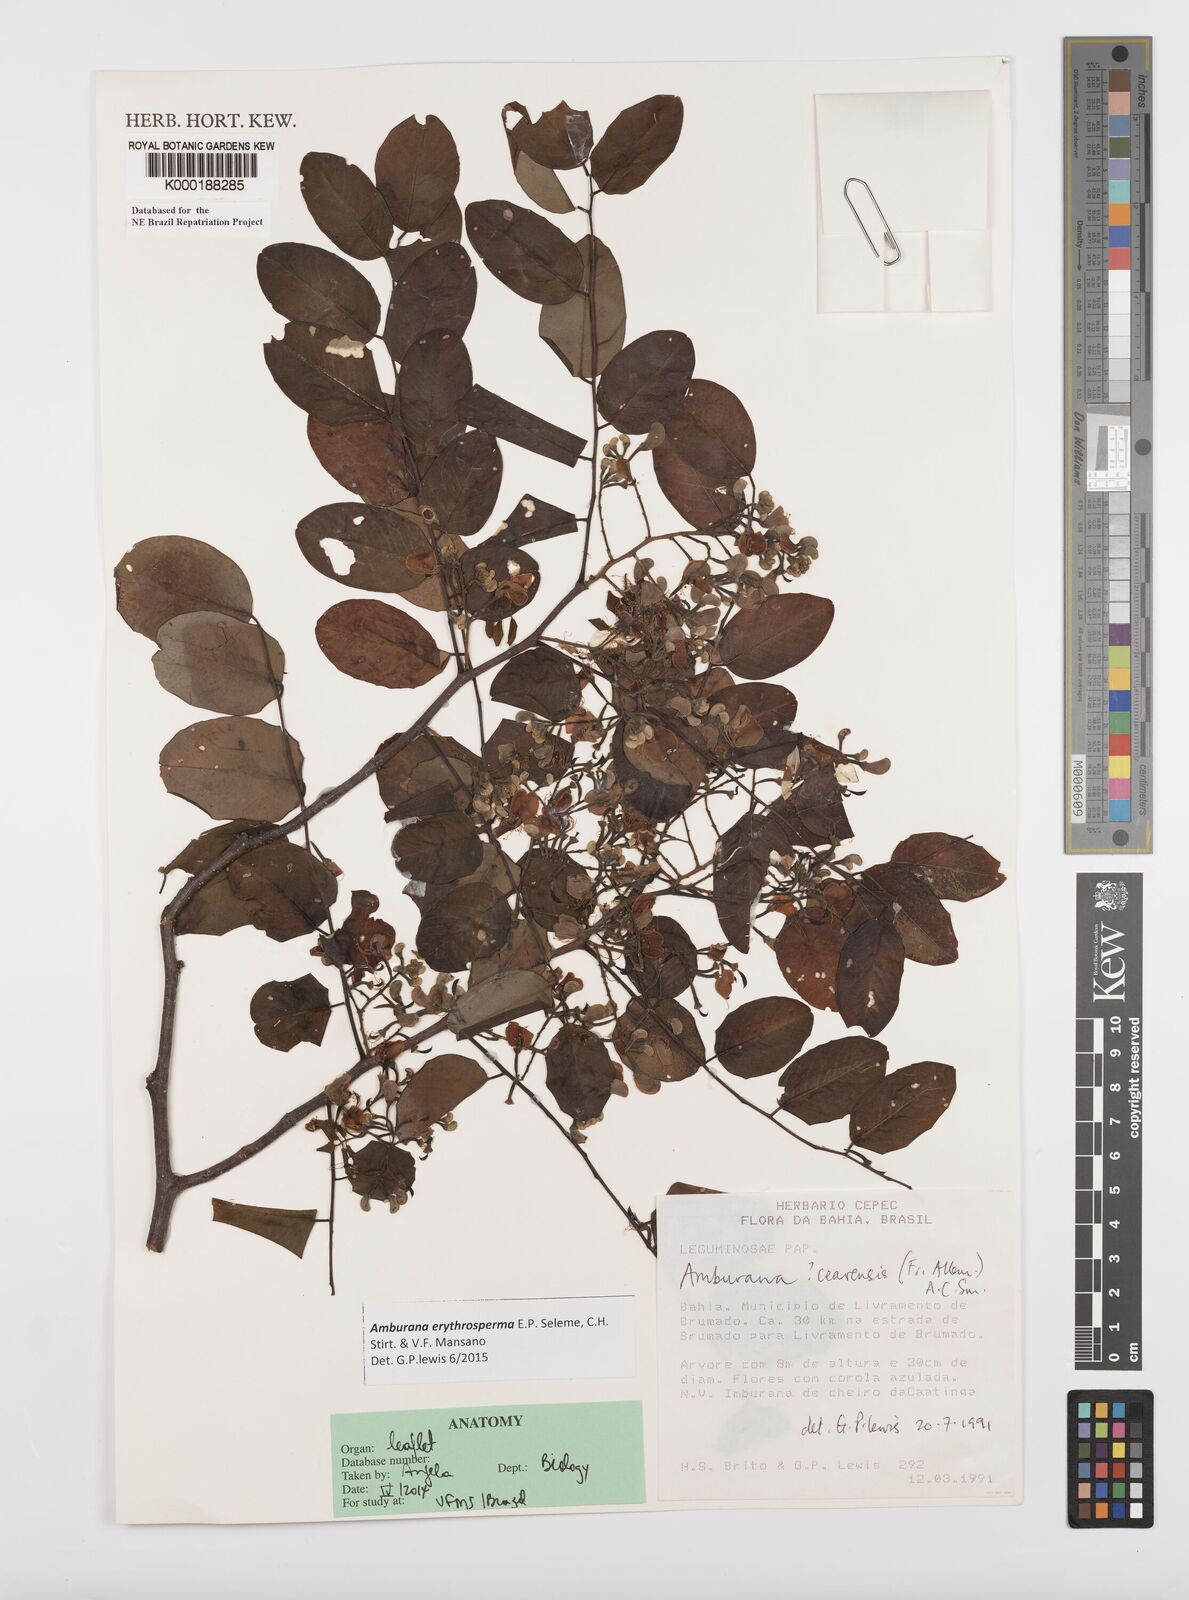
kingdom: Plantae
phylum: Tracheophyta
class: Magnoliopsida
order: Fabales
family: Fabaceae
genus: Amburana
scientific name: Amburana
